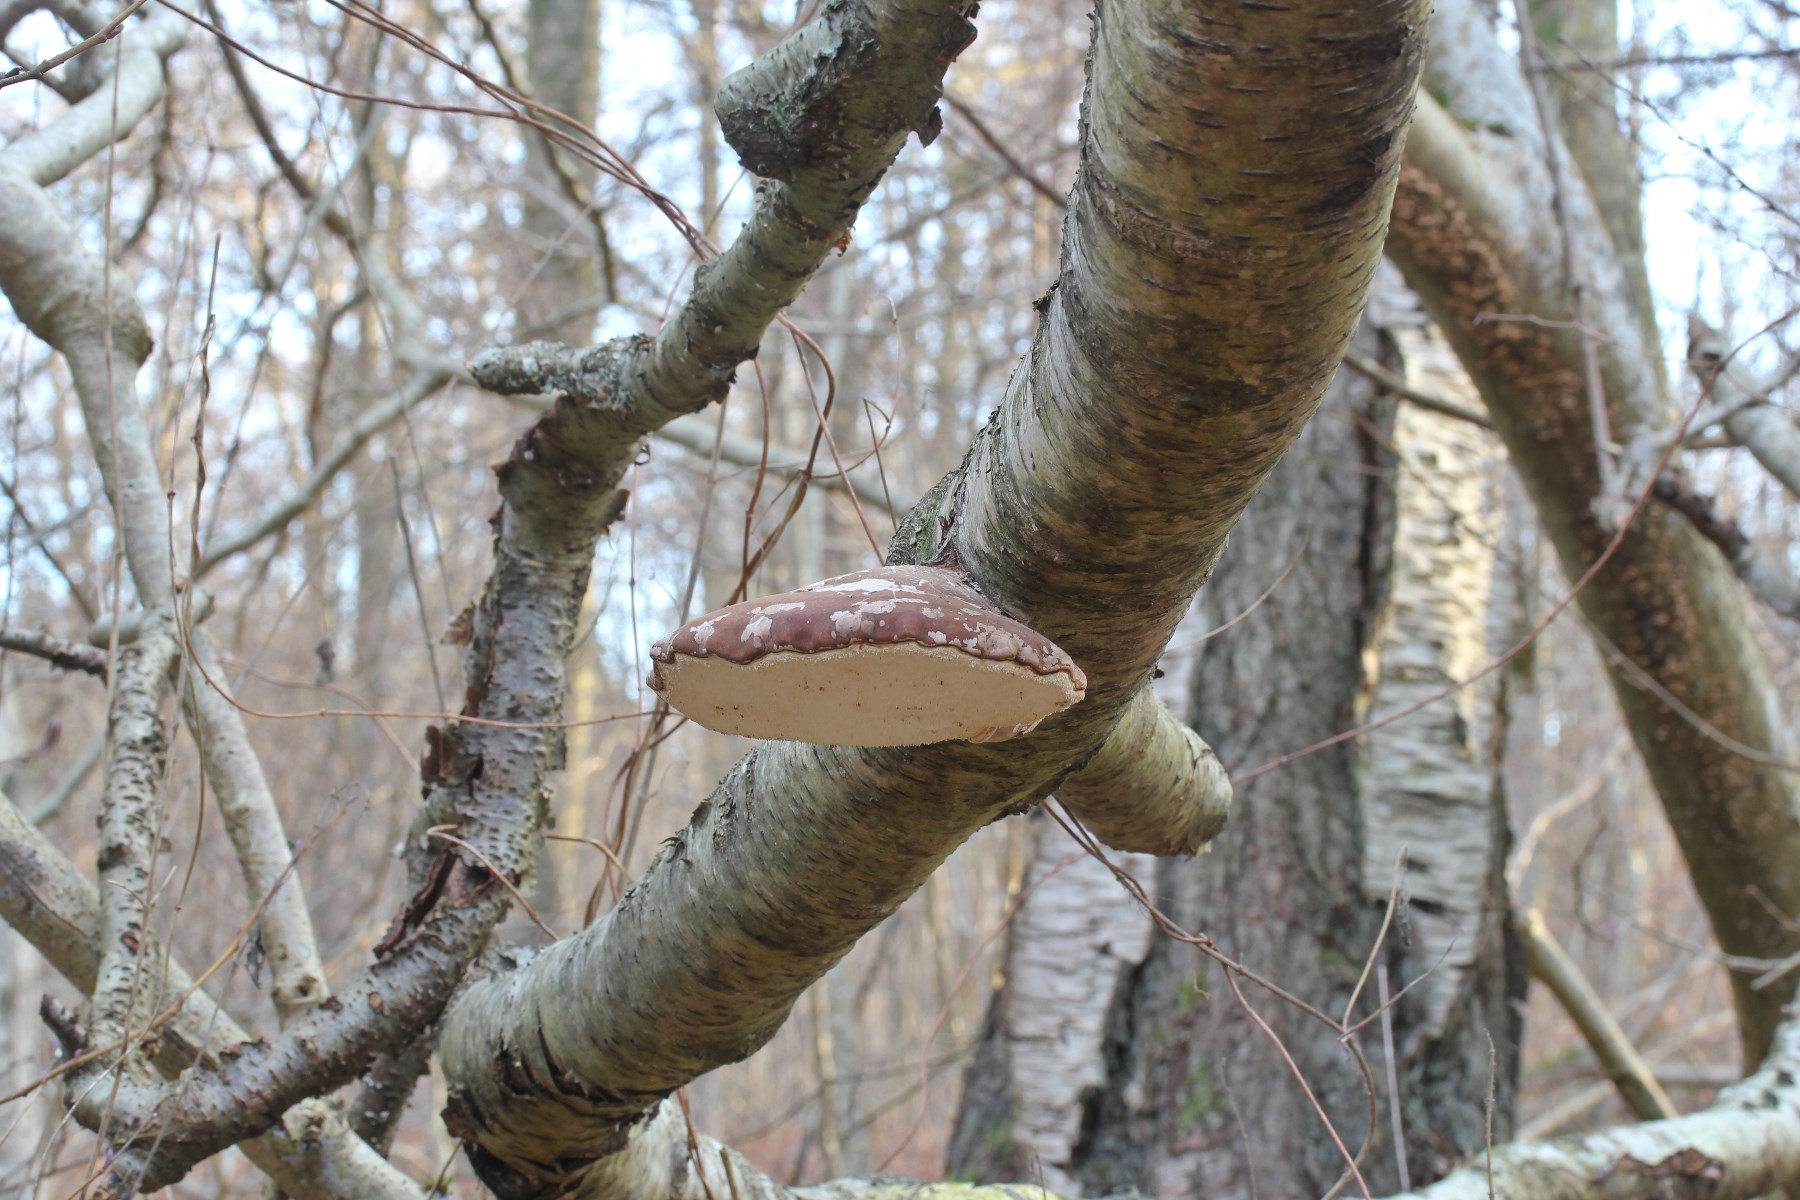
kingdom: Fungi
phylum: Basidiomycota
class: Agaricomycetes
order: Polyporales
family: Fomitopsidaceae
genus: Fomitopsis
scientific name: Fomitopsis betulina
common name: birkeporesvamp
